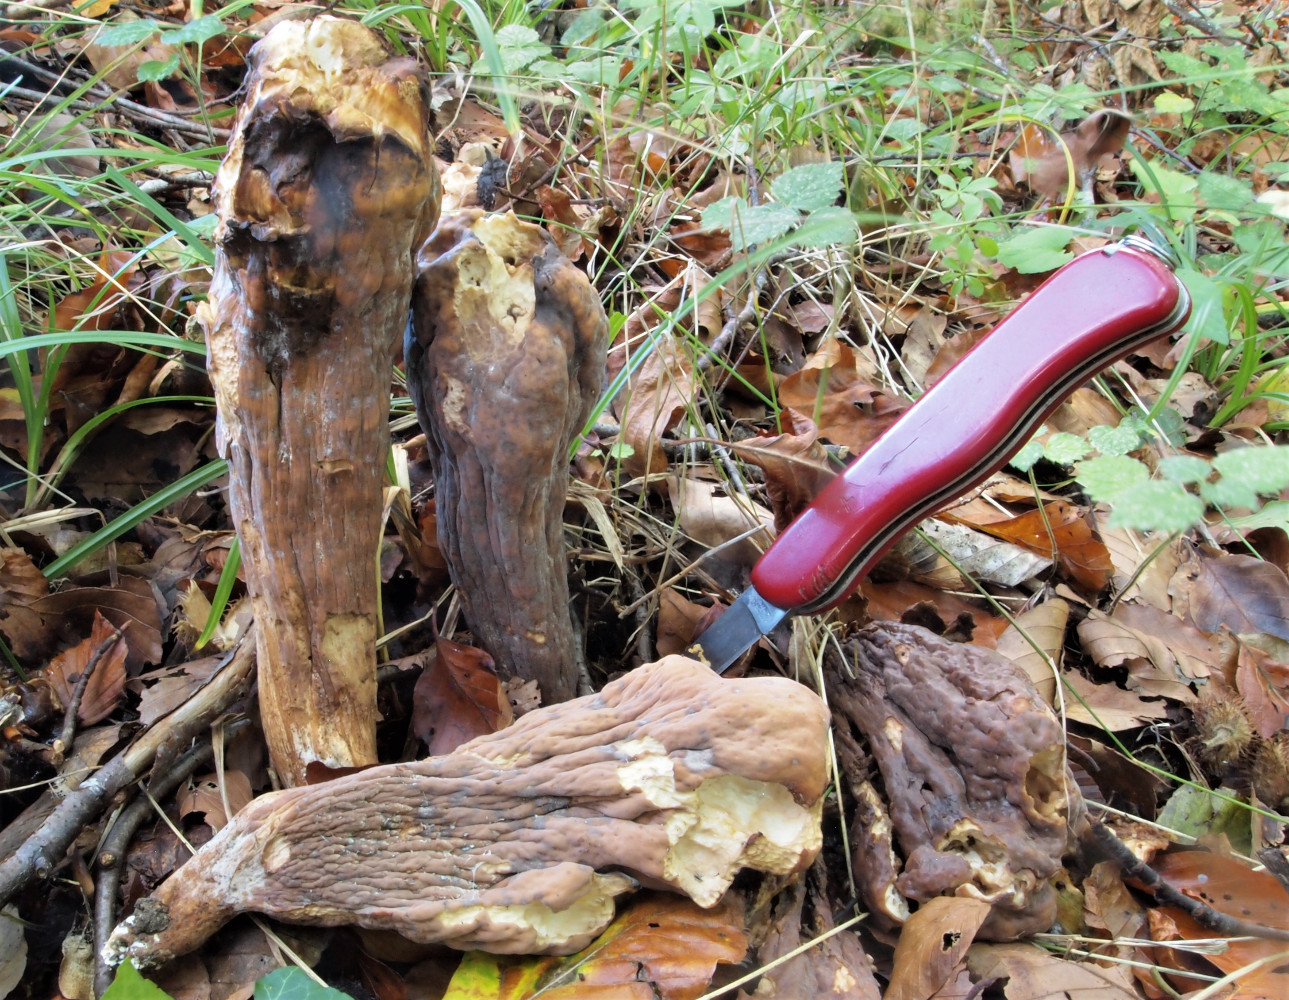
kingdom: Fungi
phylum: Basidiomycota
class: Agaricomycetes
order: Gomphales
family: Clavariadelphaceae
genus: Clavariadelphus
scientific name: Clavariadelphus pistillaris
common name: herkules-kæmpekølle
